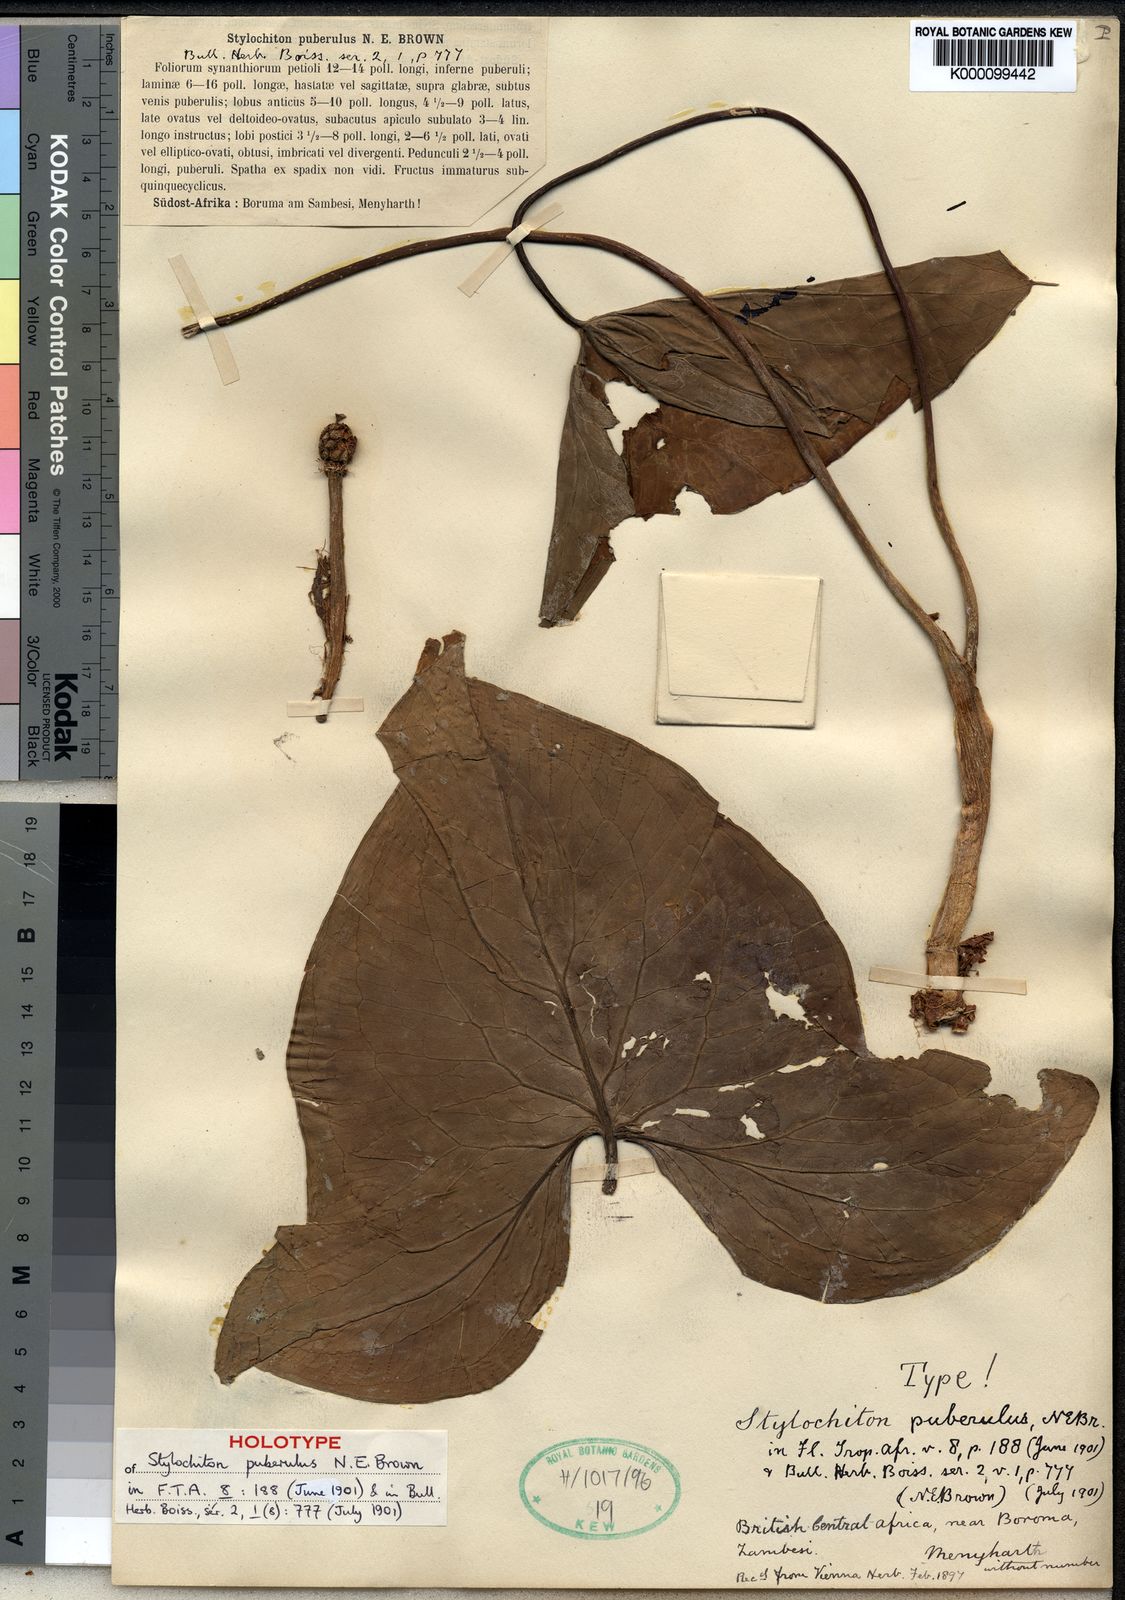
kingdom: Plantae
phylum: Tracheophyta
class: Liliopsida
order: Alismatales
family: Araceae
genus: Stylochaeton
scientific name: Stylochaeton
